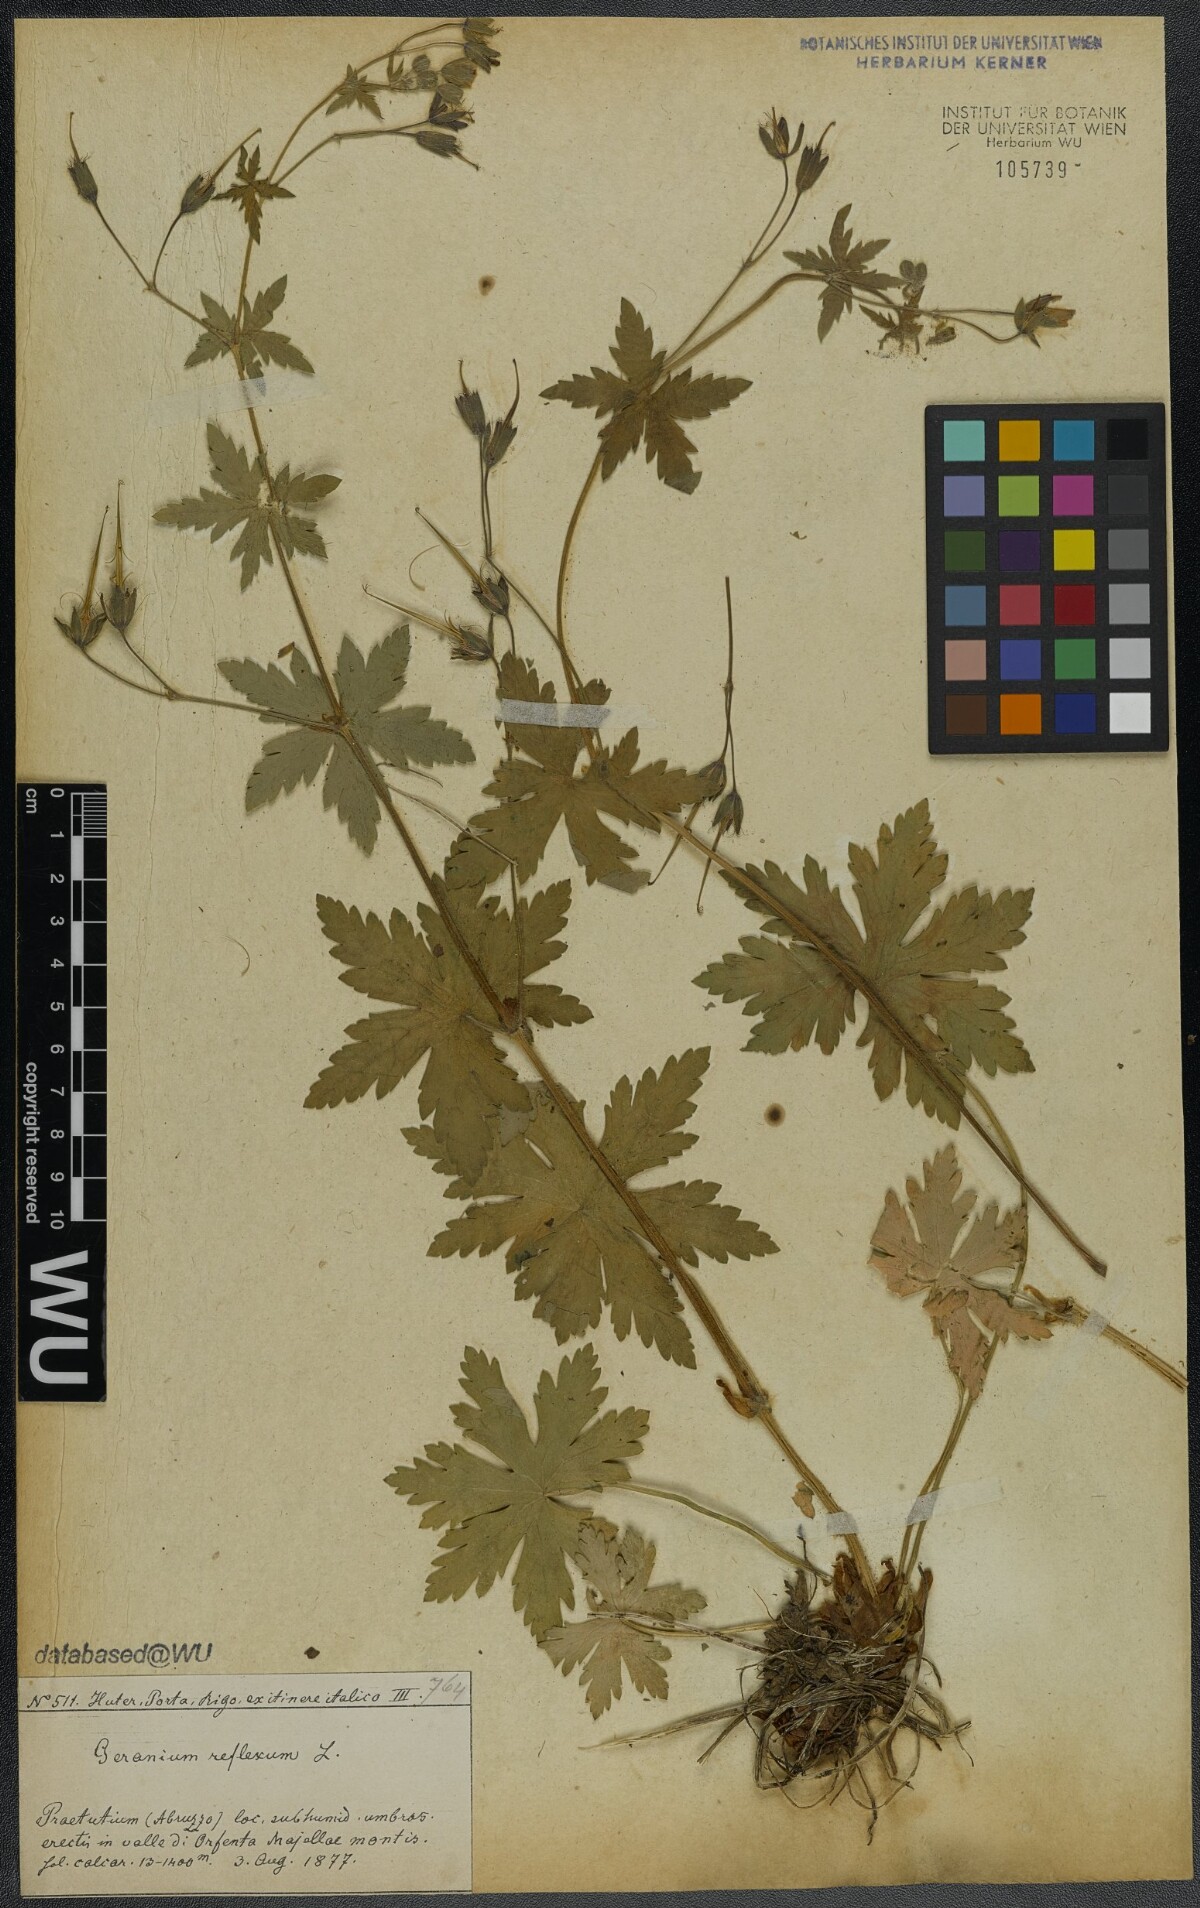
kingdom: Plantae
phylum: Tracheophyta
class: Magnoliopsida
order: Geraniales
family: Geraniaceae
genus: Geranium
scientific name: Geranium reflexum
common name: Reflexed crane's-bill
